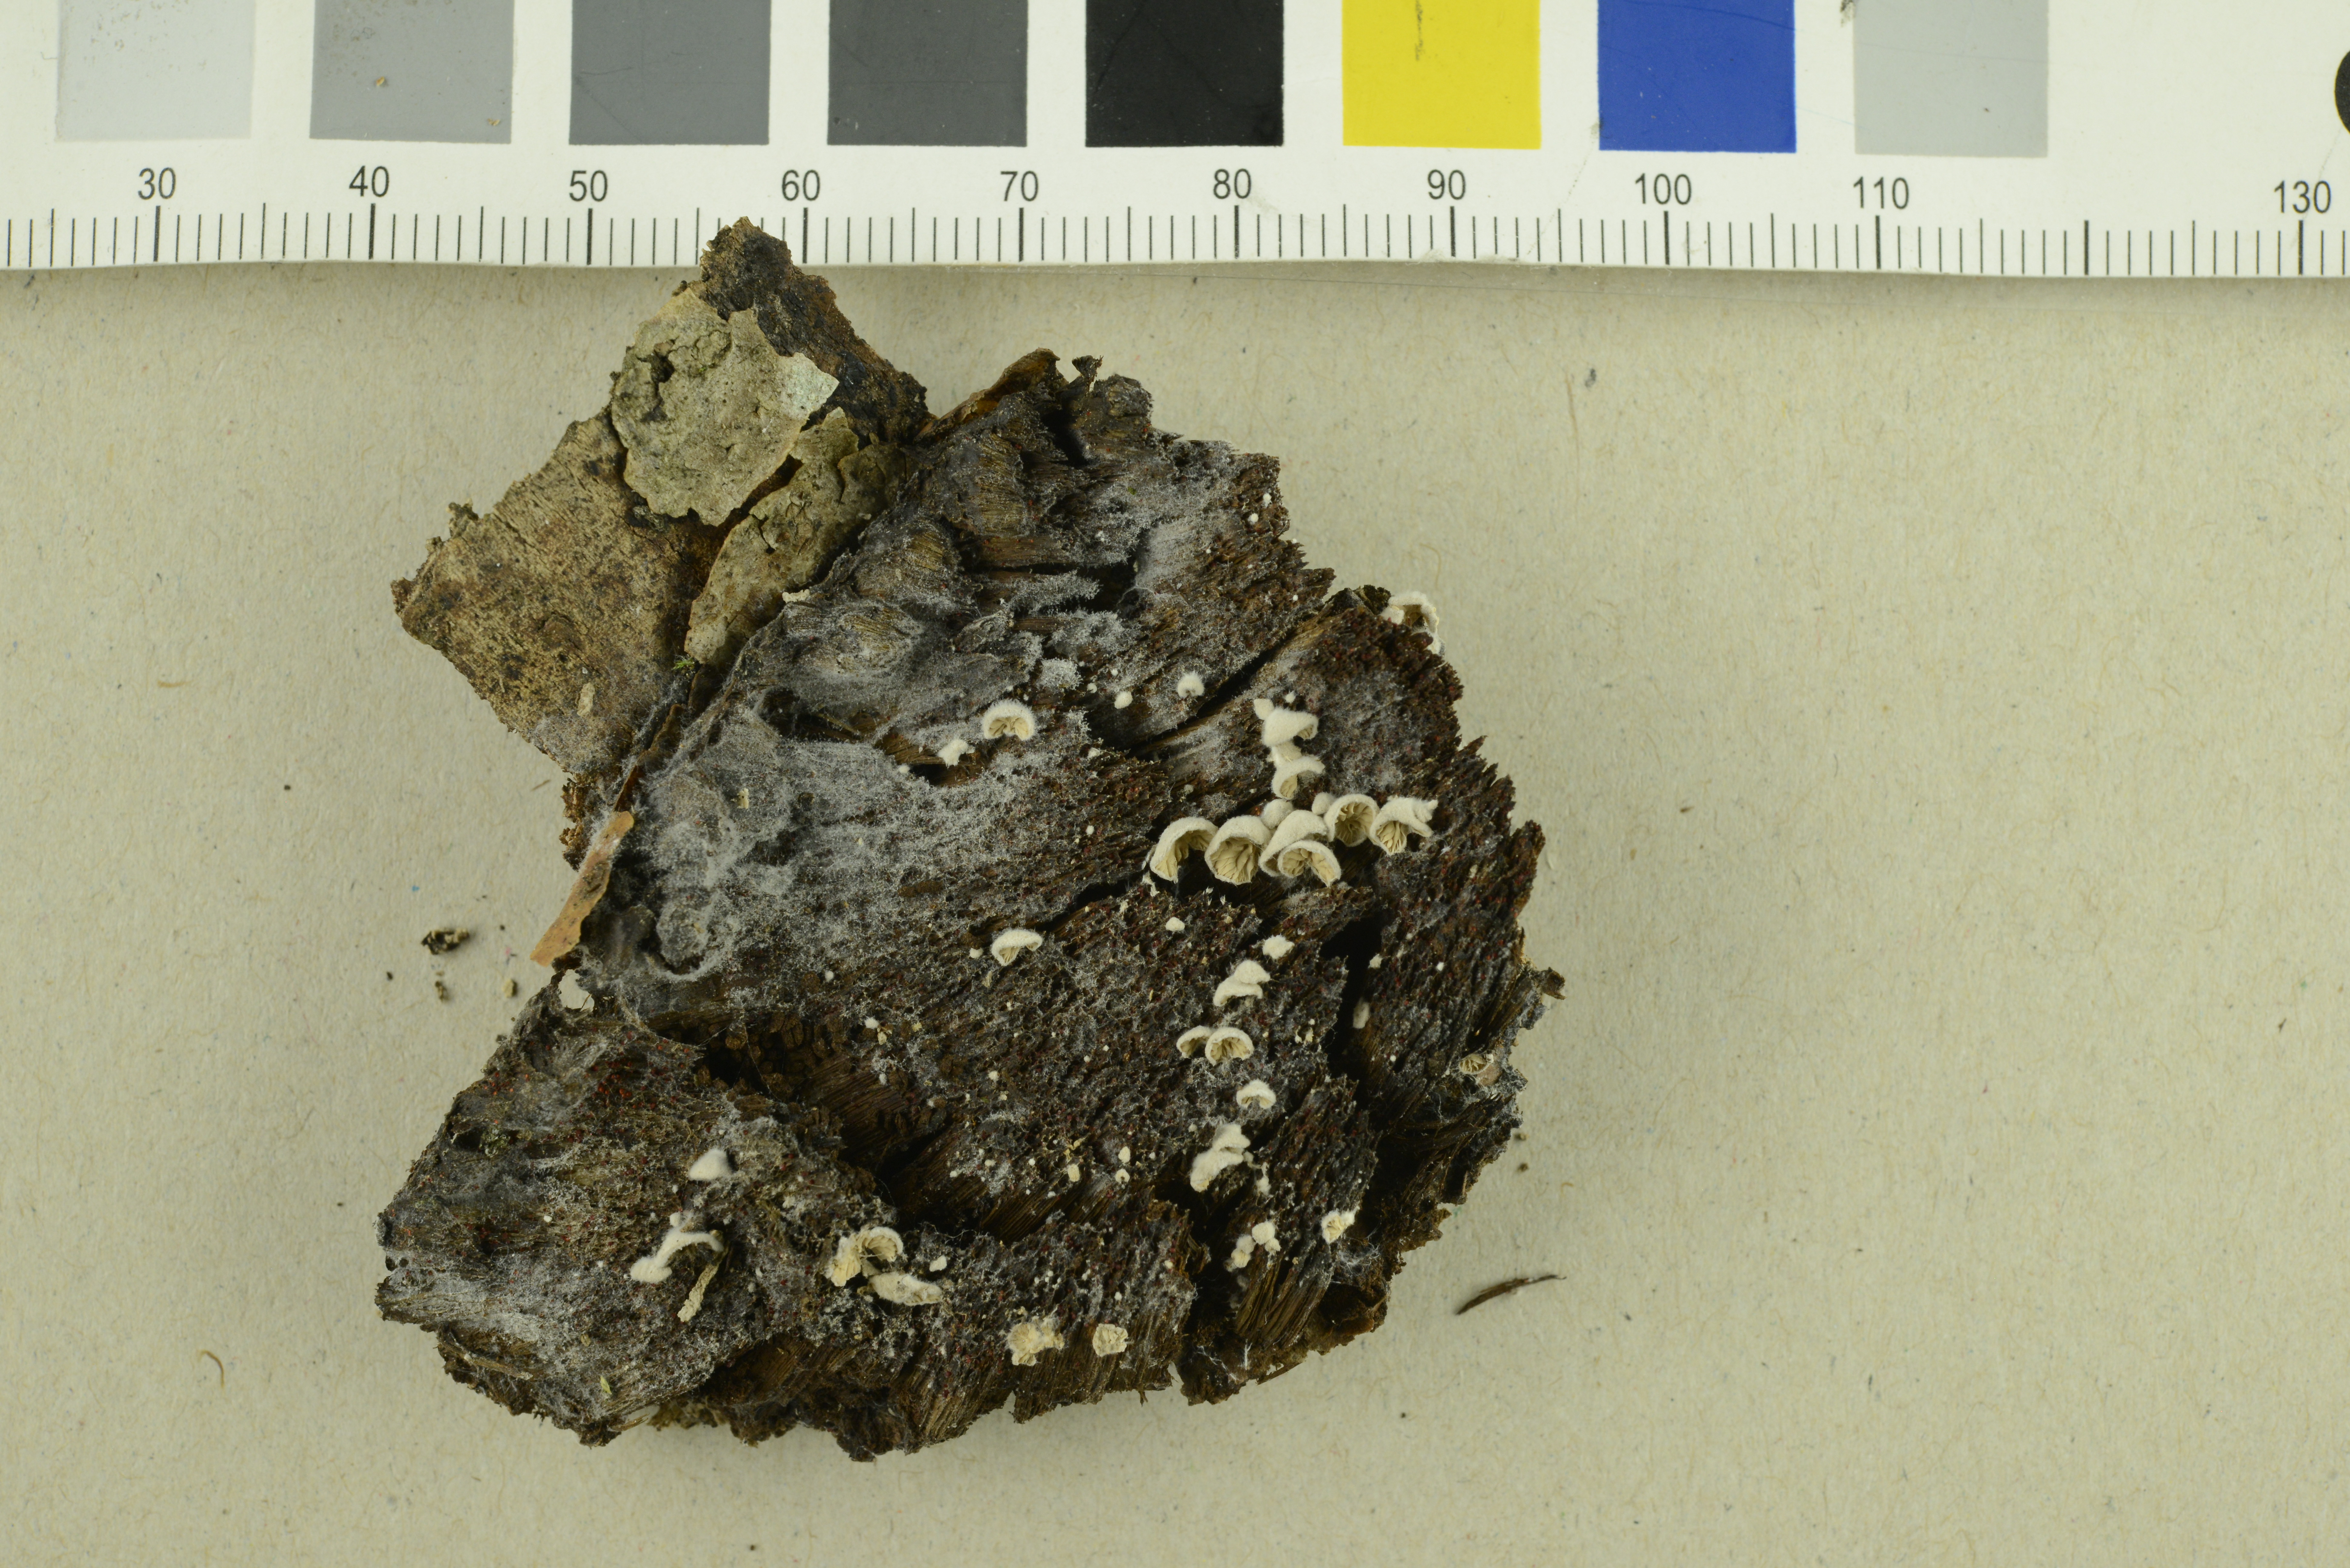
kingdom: Fungi
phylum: Basidiomycota
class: Agaricomycetes
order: Agaricales
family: Entolomataceae
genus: Clitopilus
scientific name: Clitopilus daamsii
